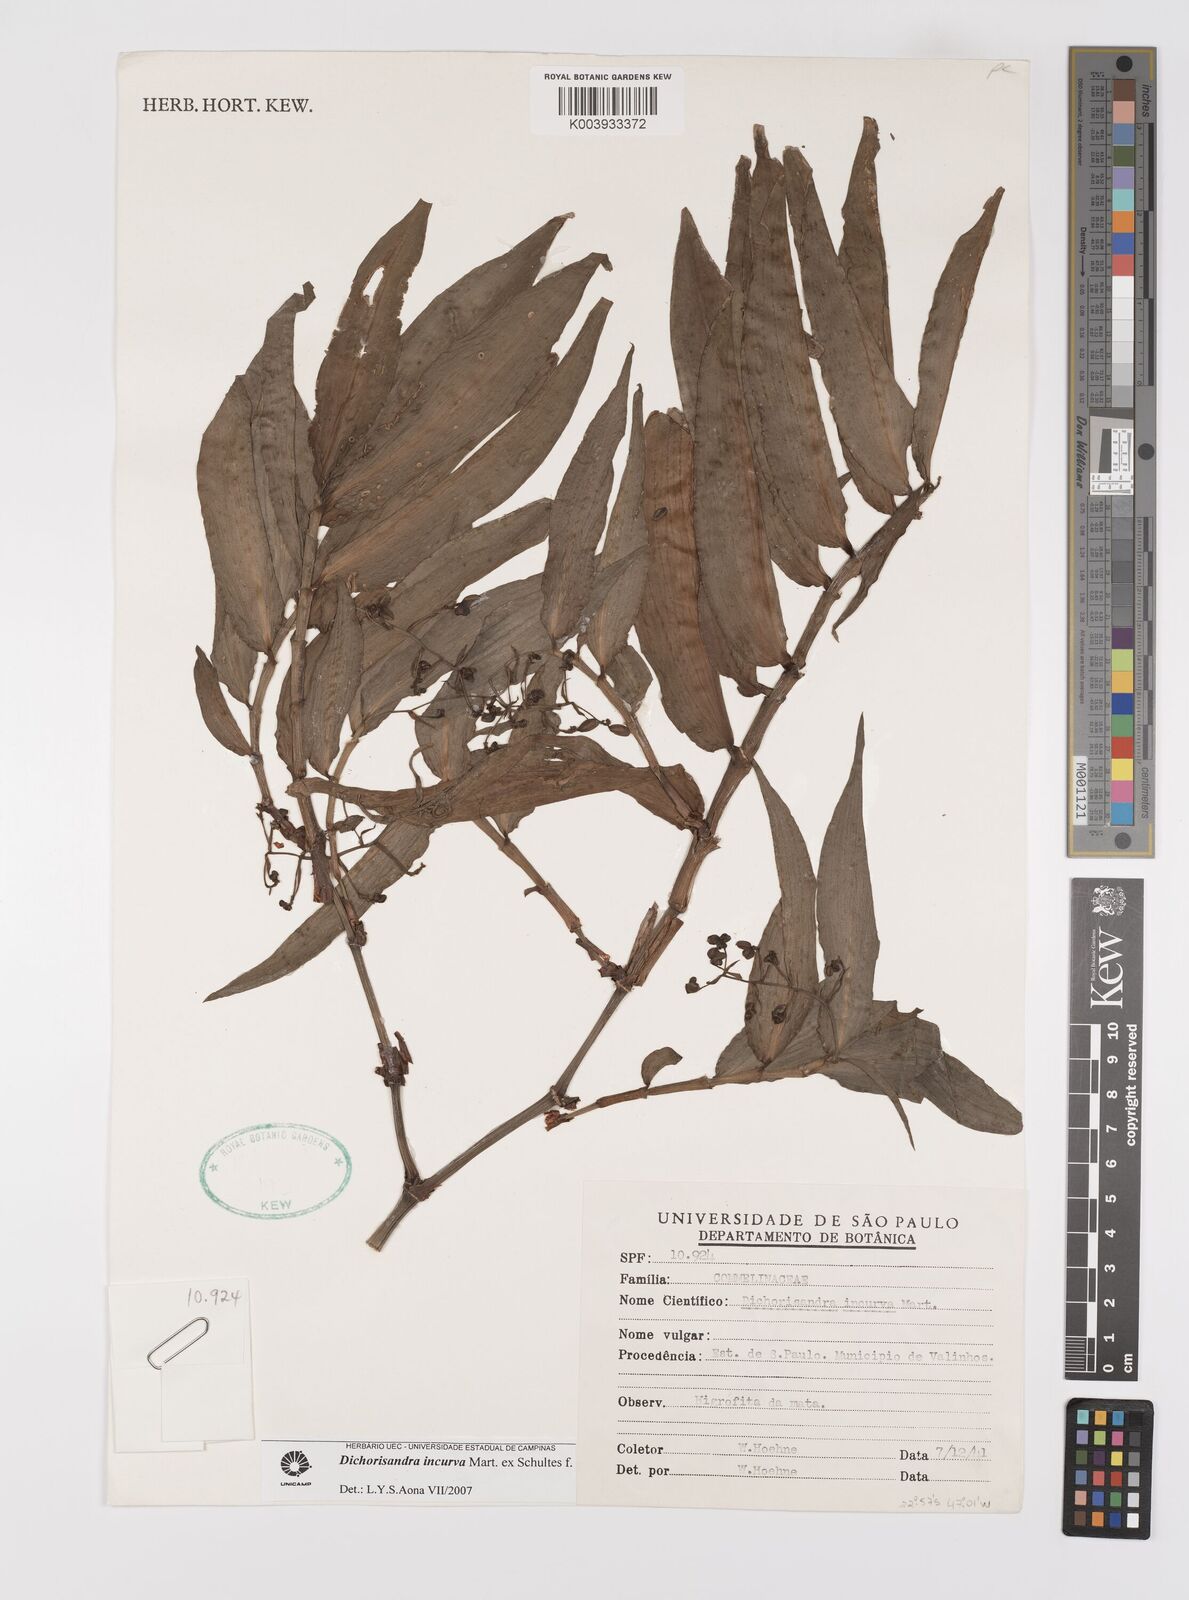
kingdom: Plantae
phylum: Tracheophyta
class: Liliopsida
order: Commelinales
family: Commelinaceae
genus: Dichorisandra
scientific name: Dichorisandra incurva
